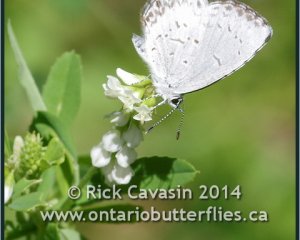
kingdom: Animalia
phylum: Arthropoda
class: Insecta
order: Lepidoptera
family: Lycaenidae
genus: Cyaniris
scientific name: Cyaniris neglecta
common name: Summer Azure
